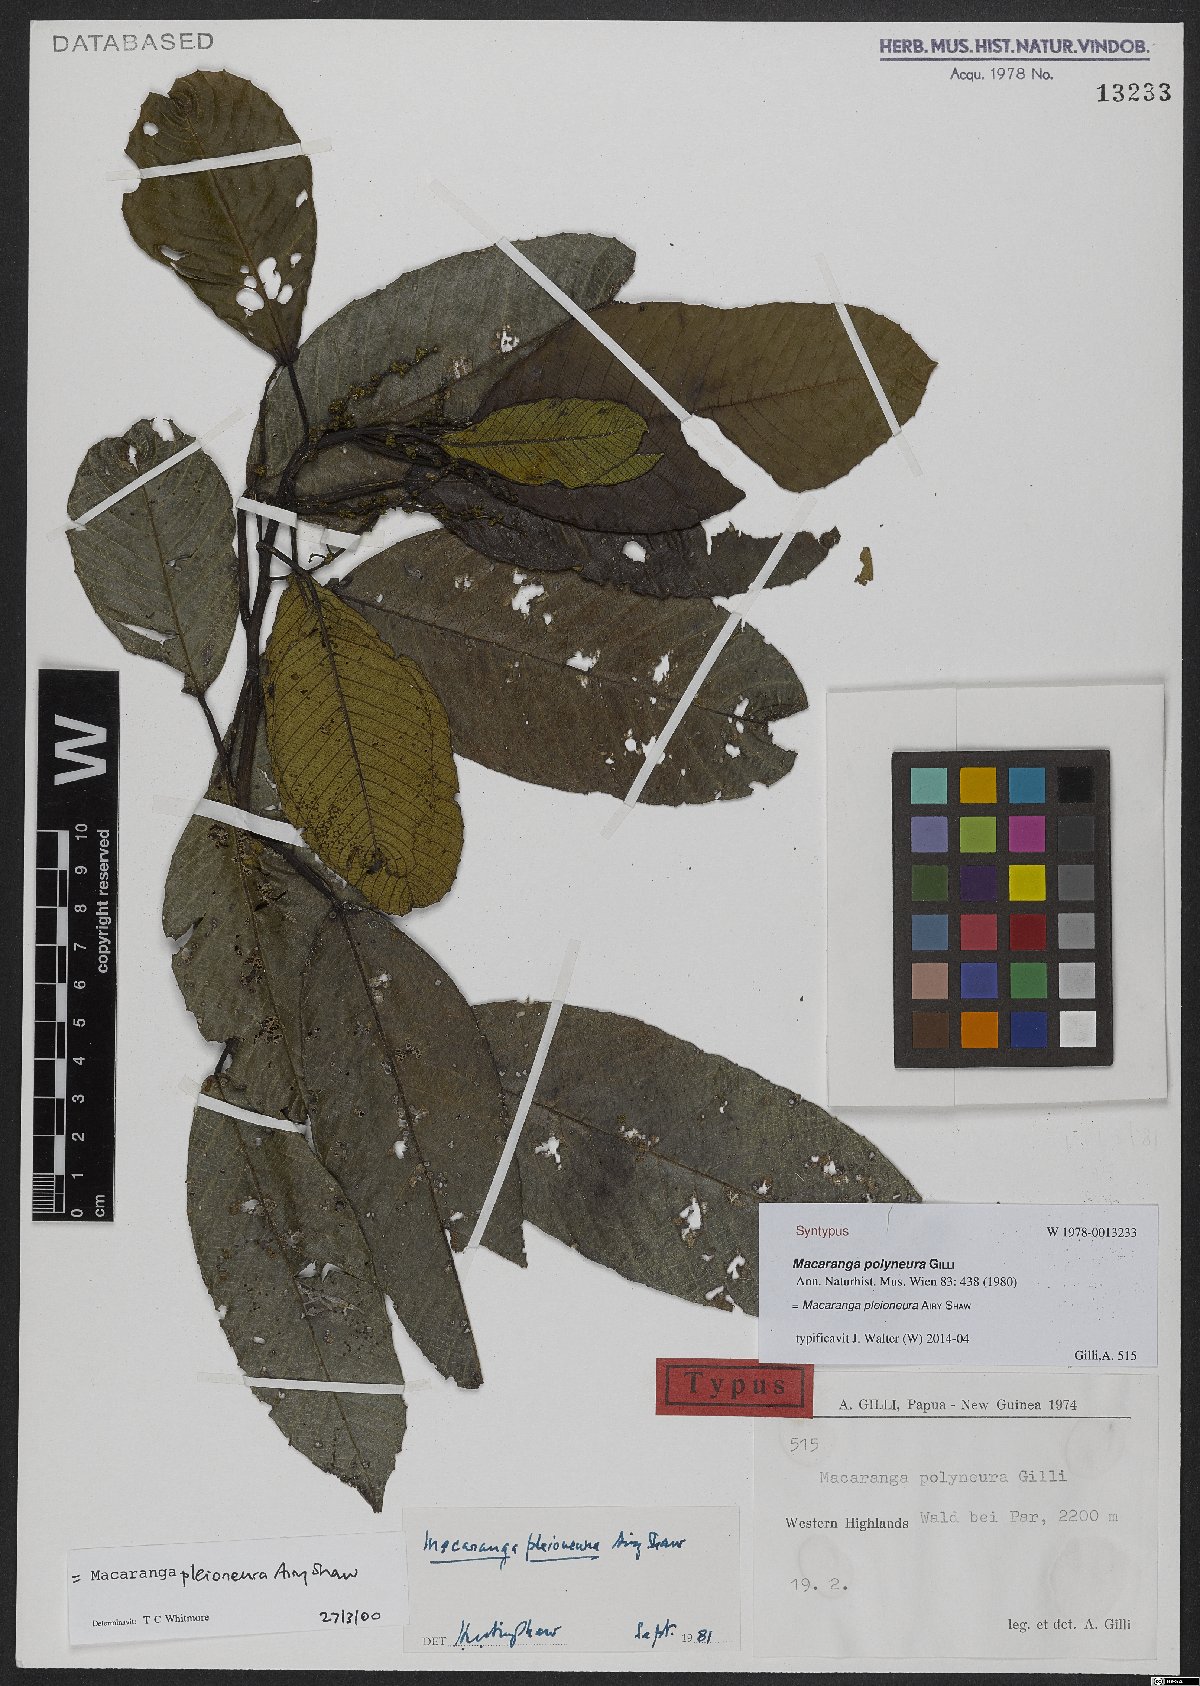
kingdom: Plantae
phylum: Tracheophyta
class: Magnoliopsida
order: Malpighiales
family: Euphorbiaceae
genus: Macaranga
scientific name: Macaranga pleioneura
